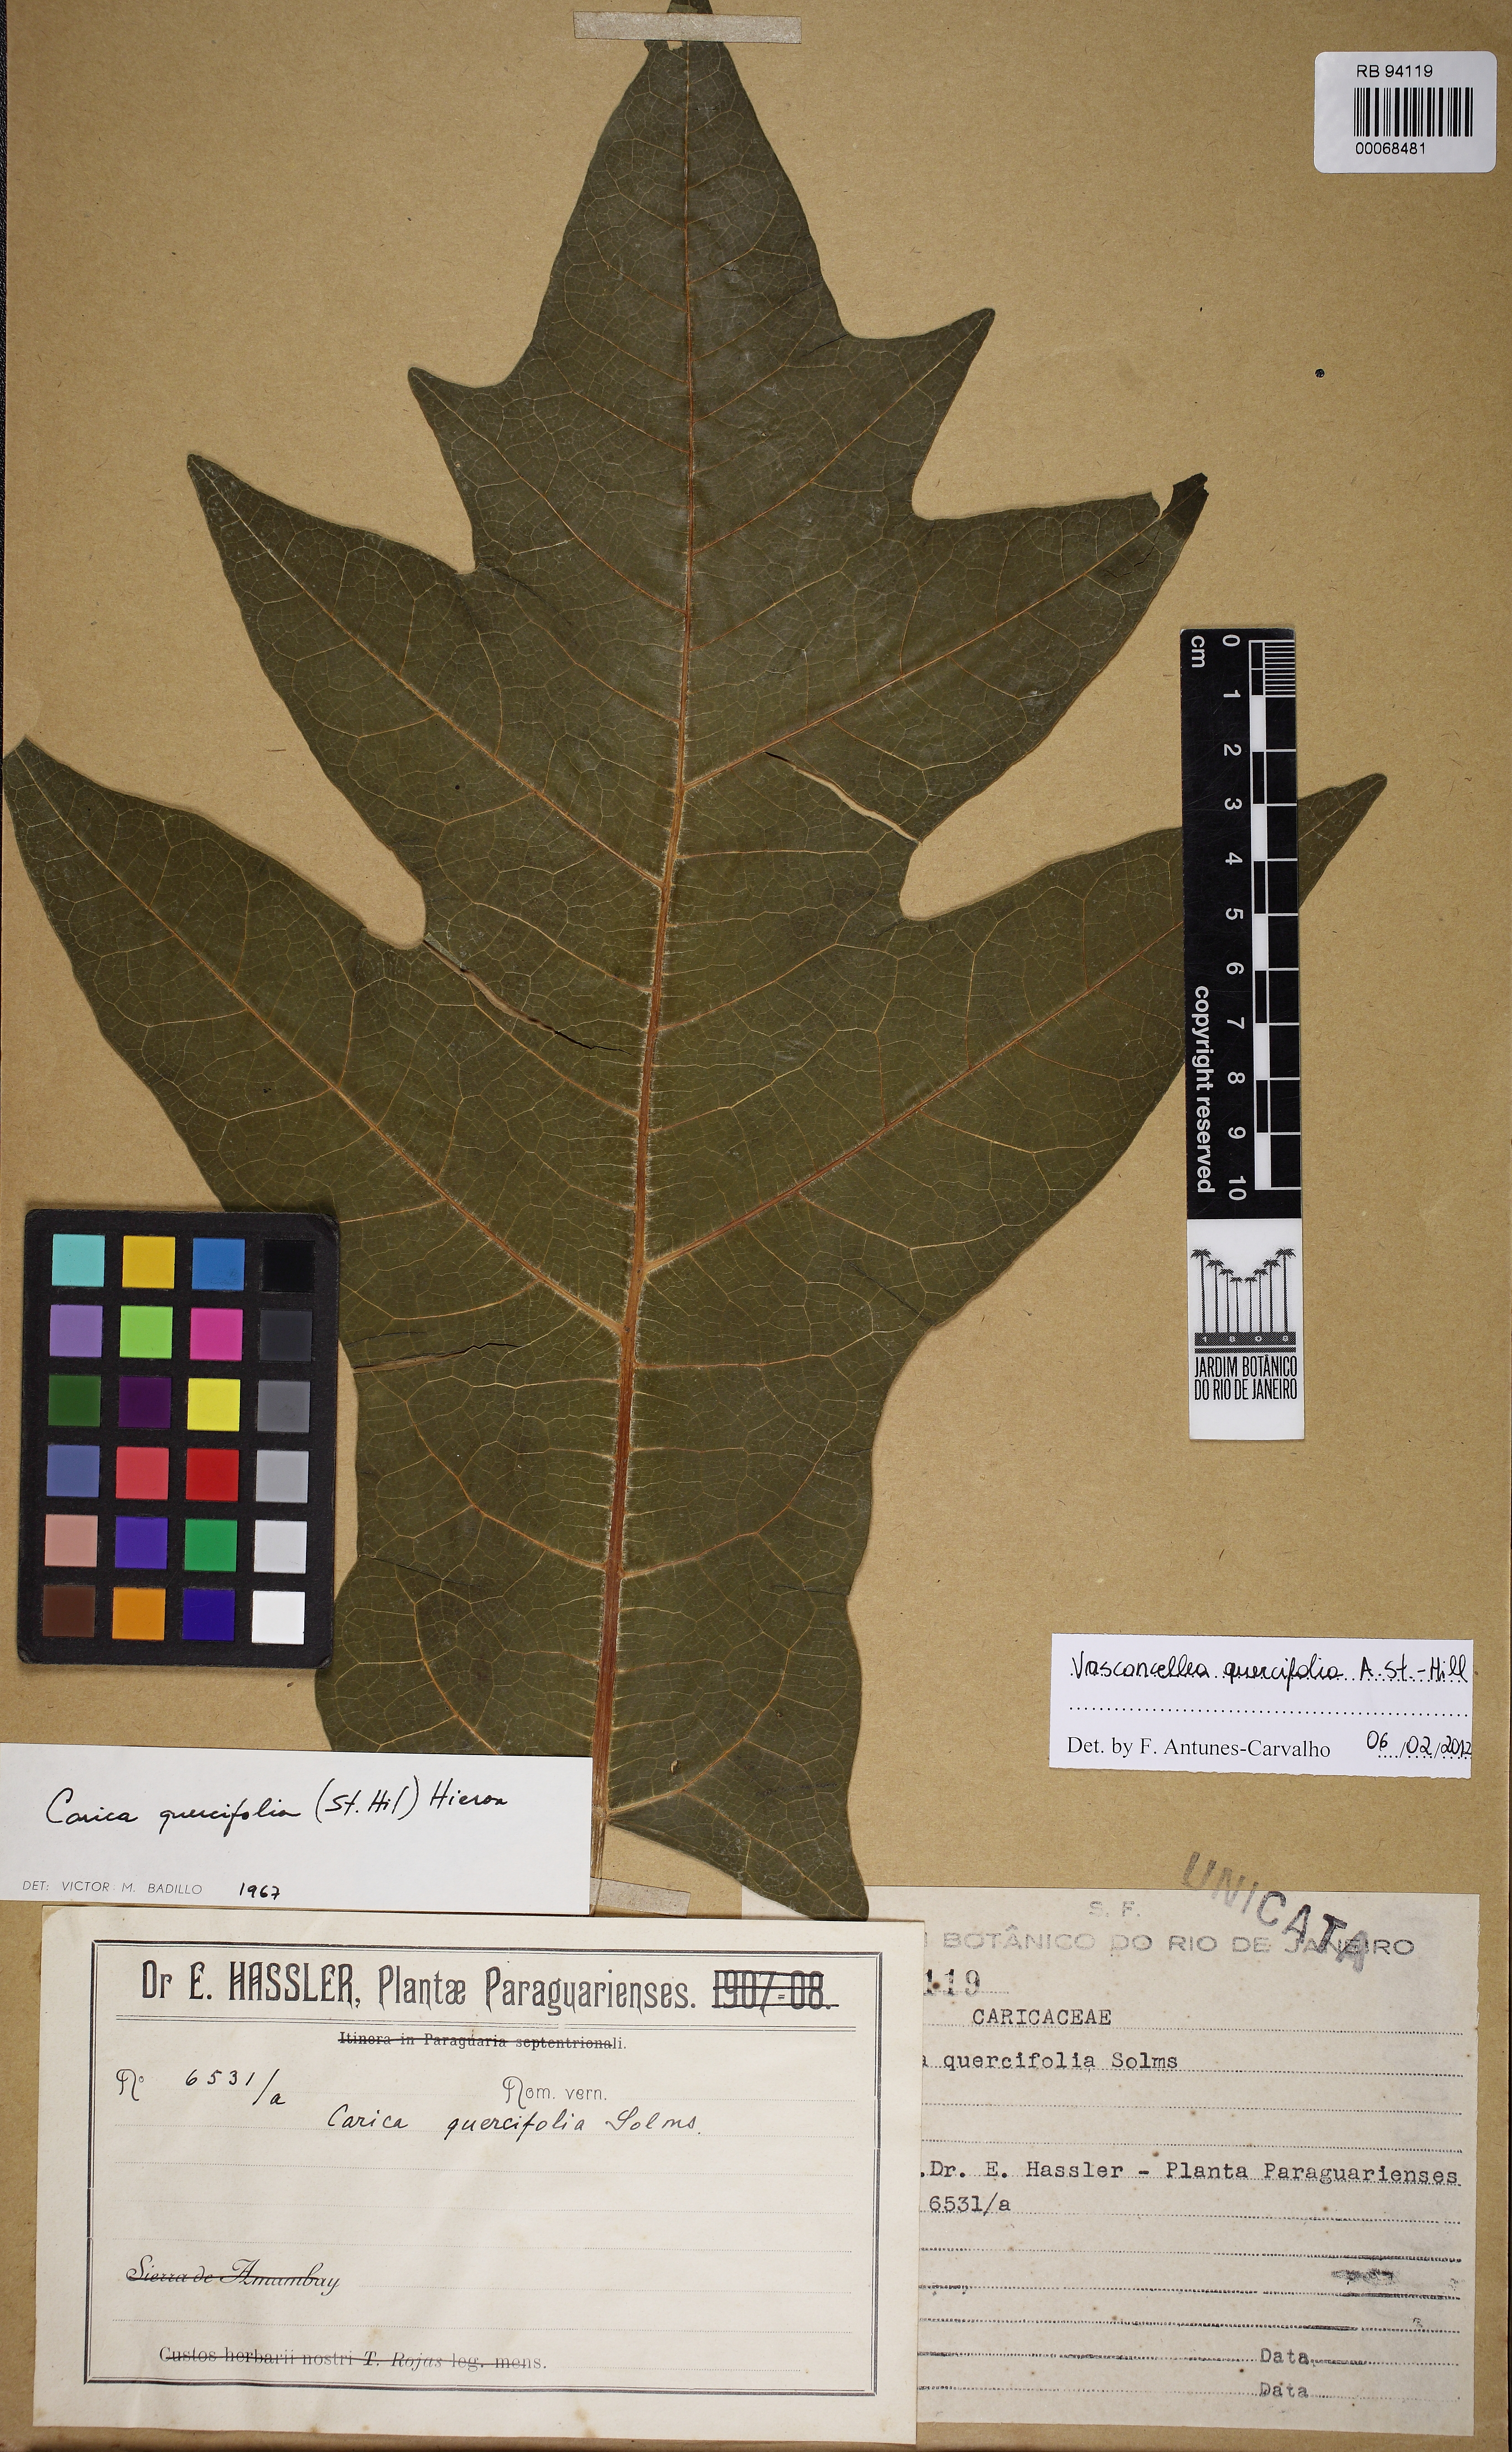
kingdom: Plantae
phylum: Tracheophyta
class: Magnoliopsida
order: Brassicales
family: Caricaceae
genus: Vasconcellea
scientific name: Vasconcellea quercifolia
